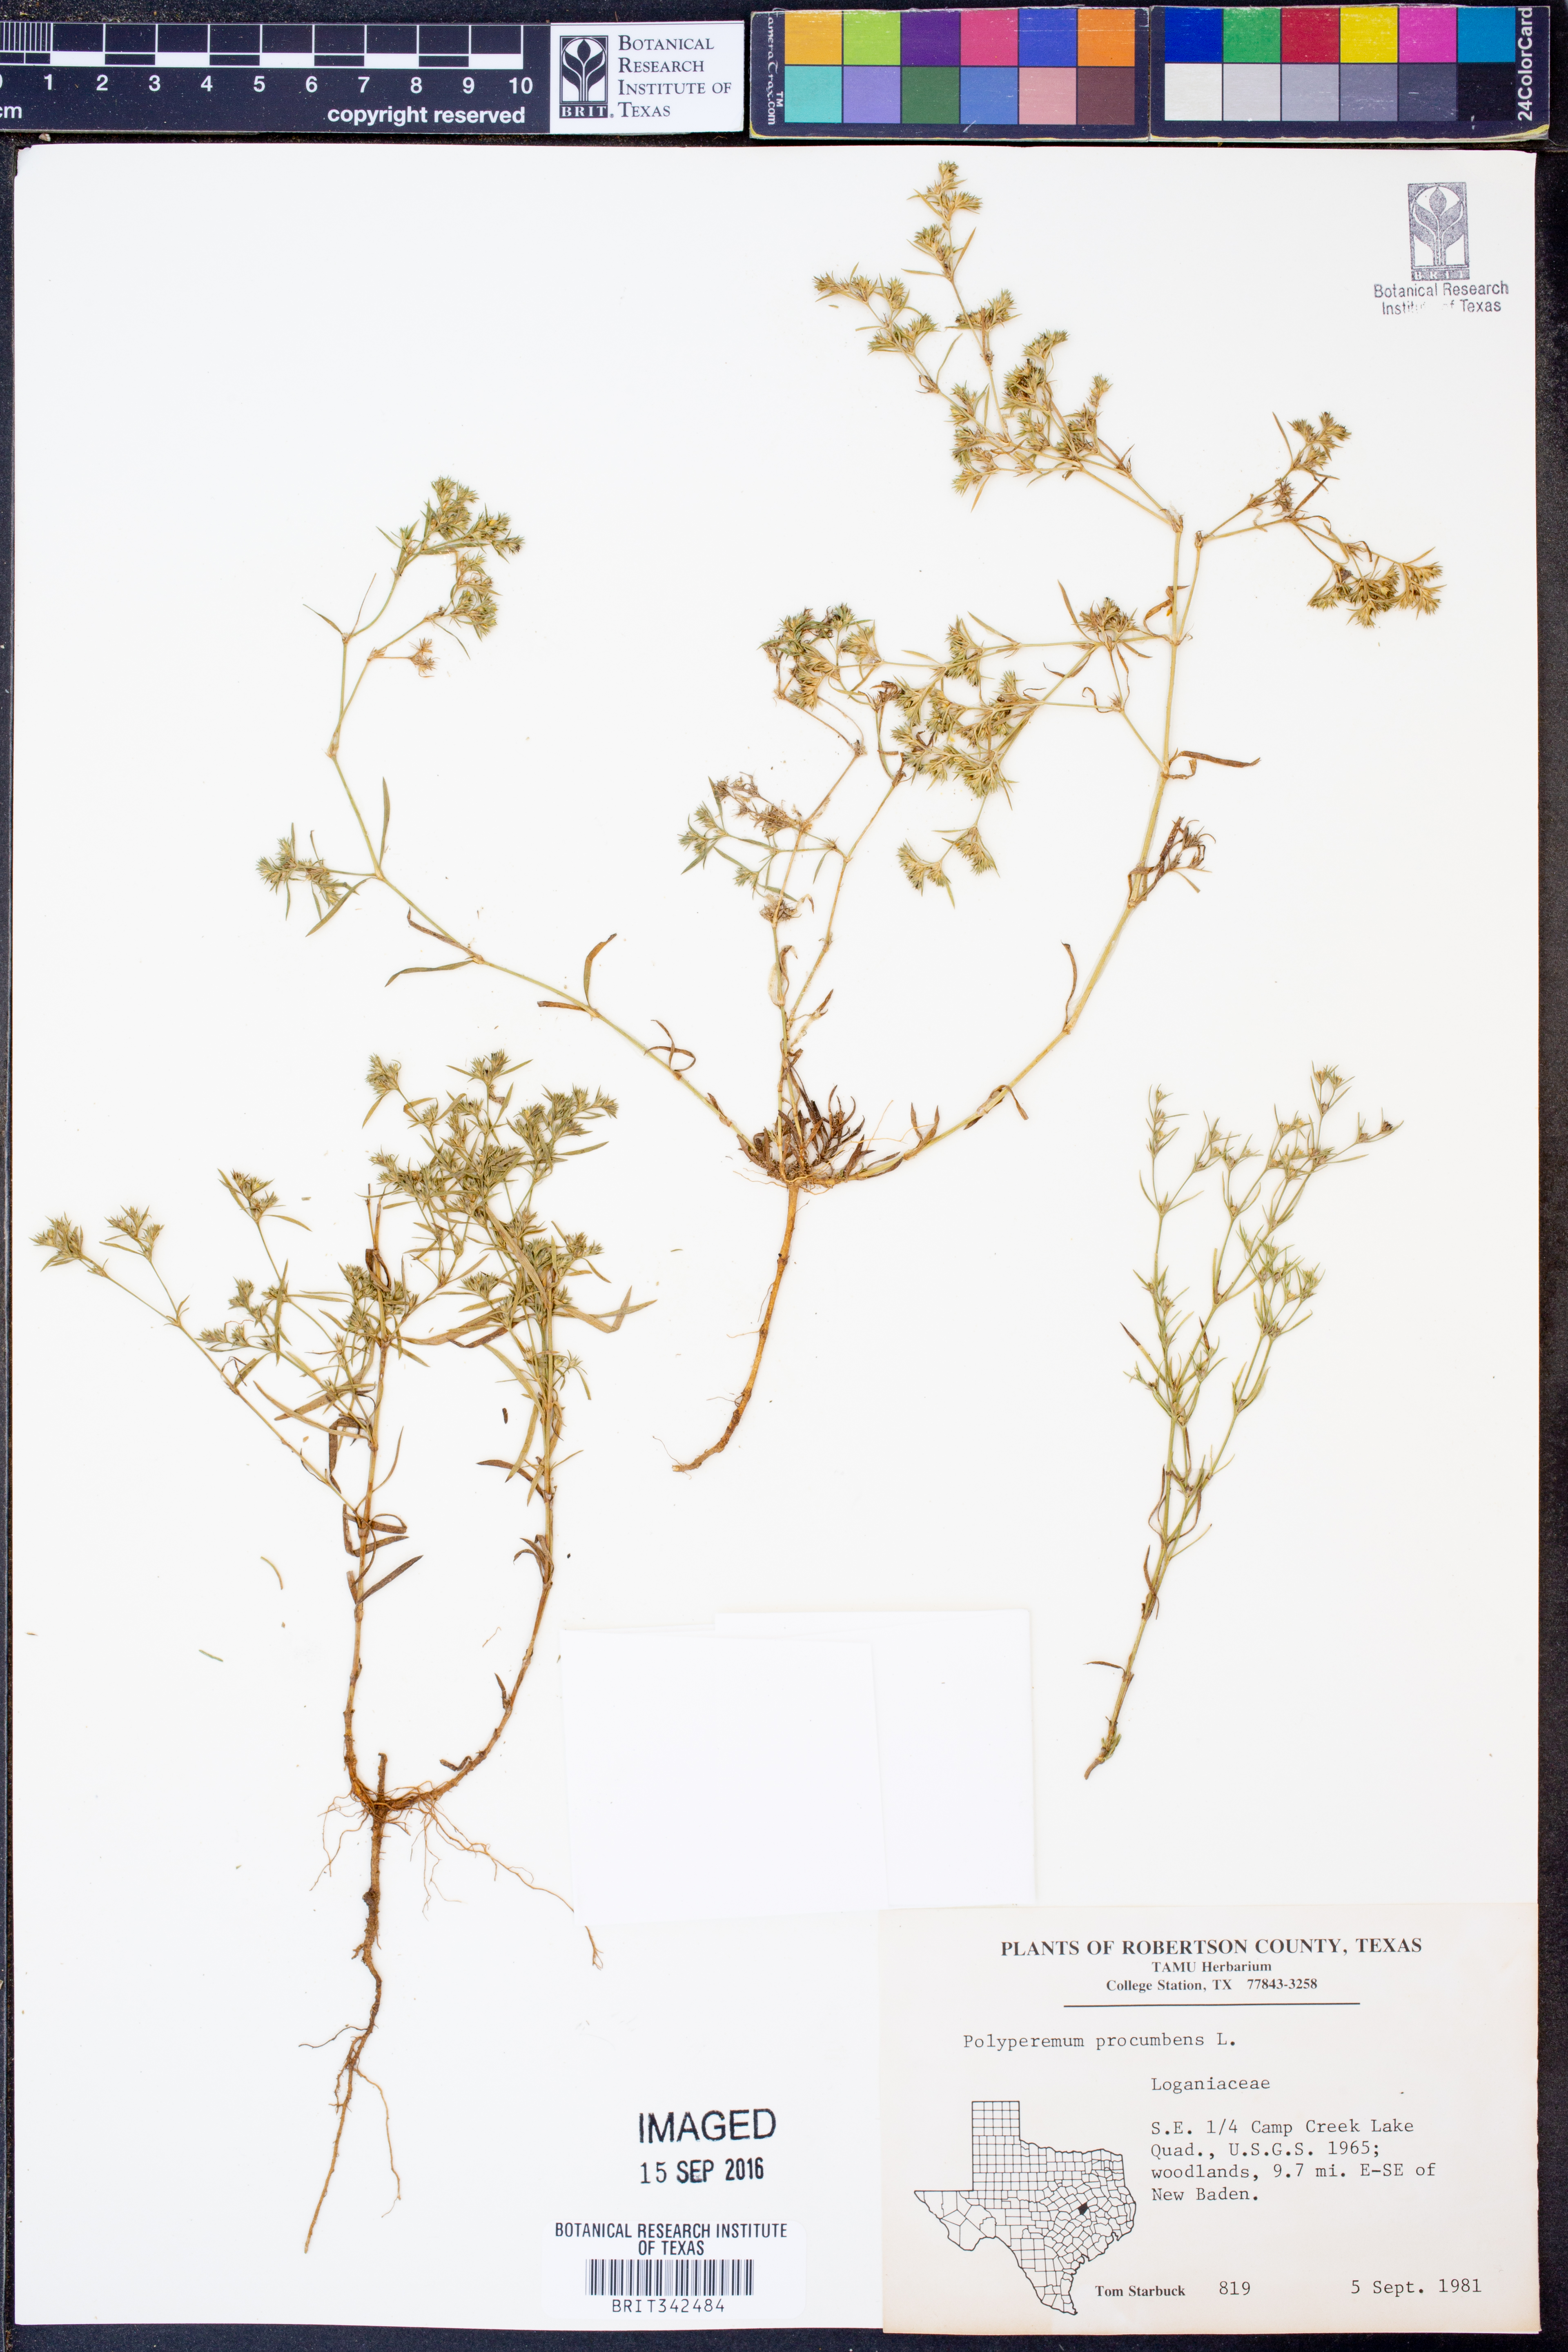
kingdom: Plantae
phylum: Tracheophyta
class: Magnoliopsida
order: Lamiales
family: Tetrachondraceae
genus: Polypremum
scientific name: Polypremum procumbens
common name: Juniper-leaf
